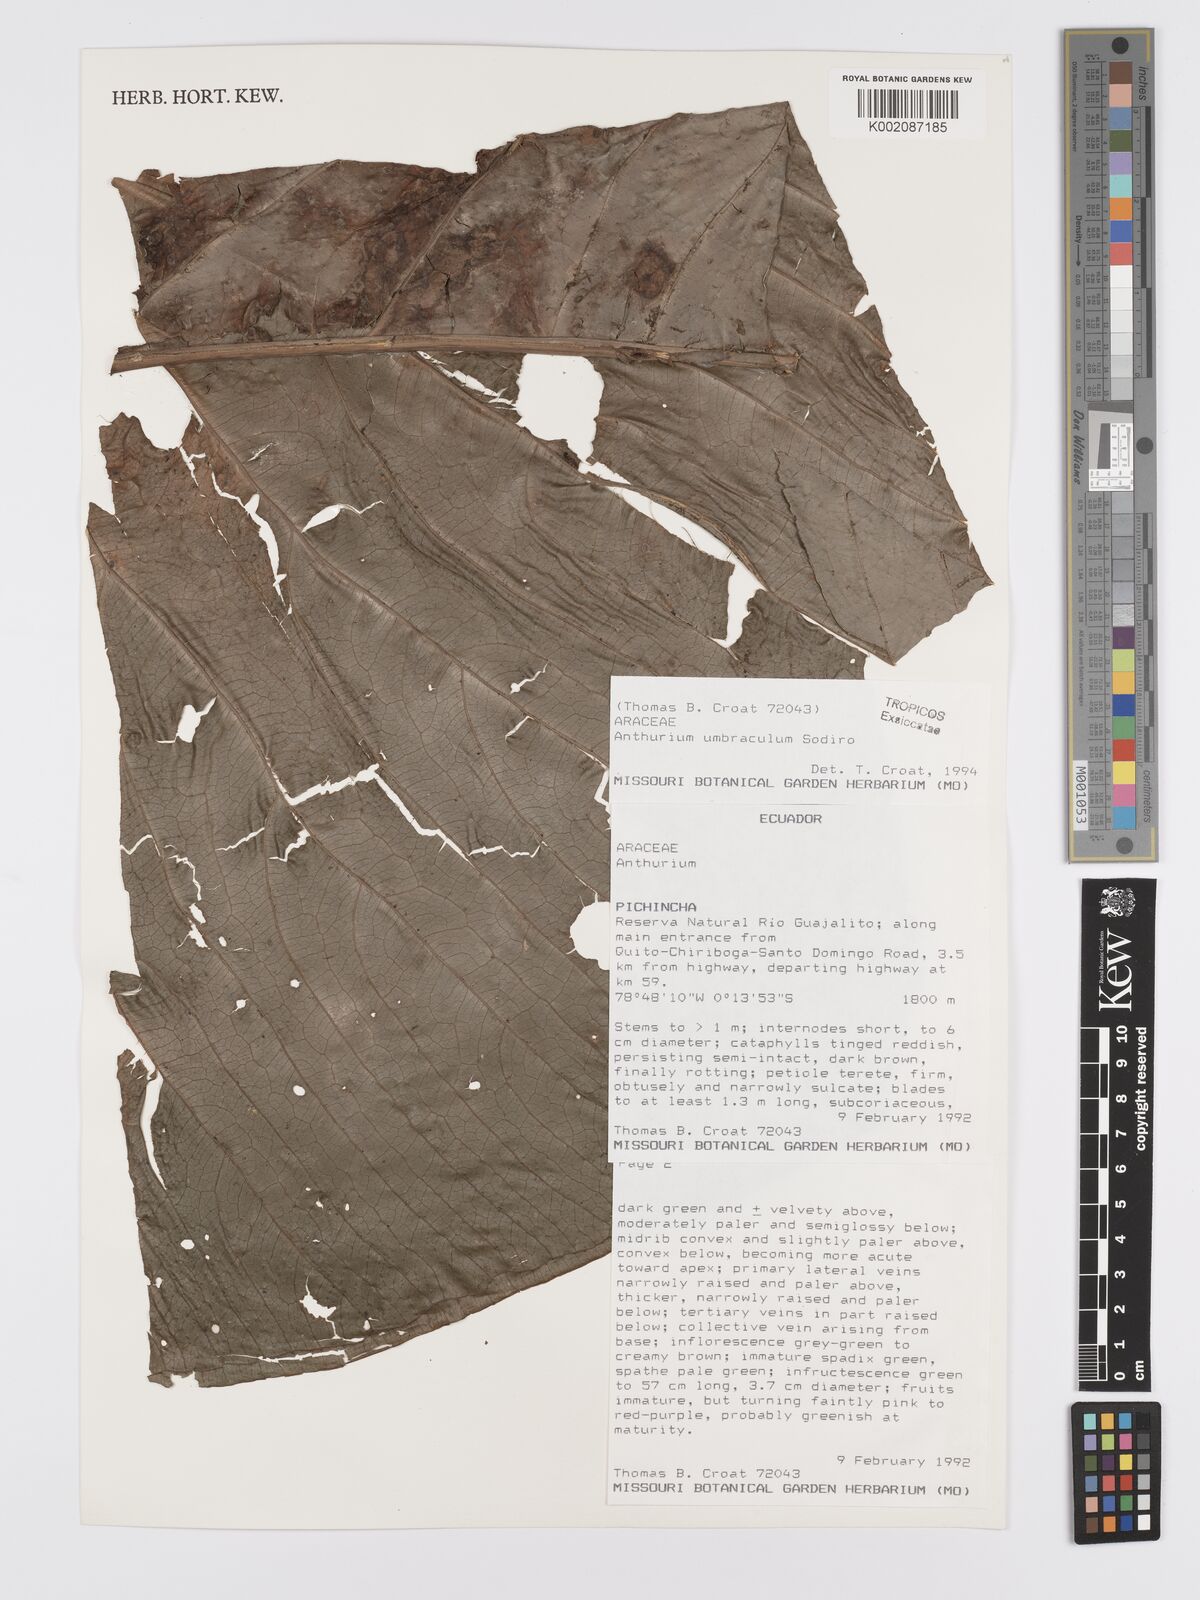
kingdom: Plantae
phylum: Tracheophyta
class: Liliopsida
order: Alismatales
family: Araceae
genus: Anthurium
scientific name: Anthurium umbraculum
